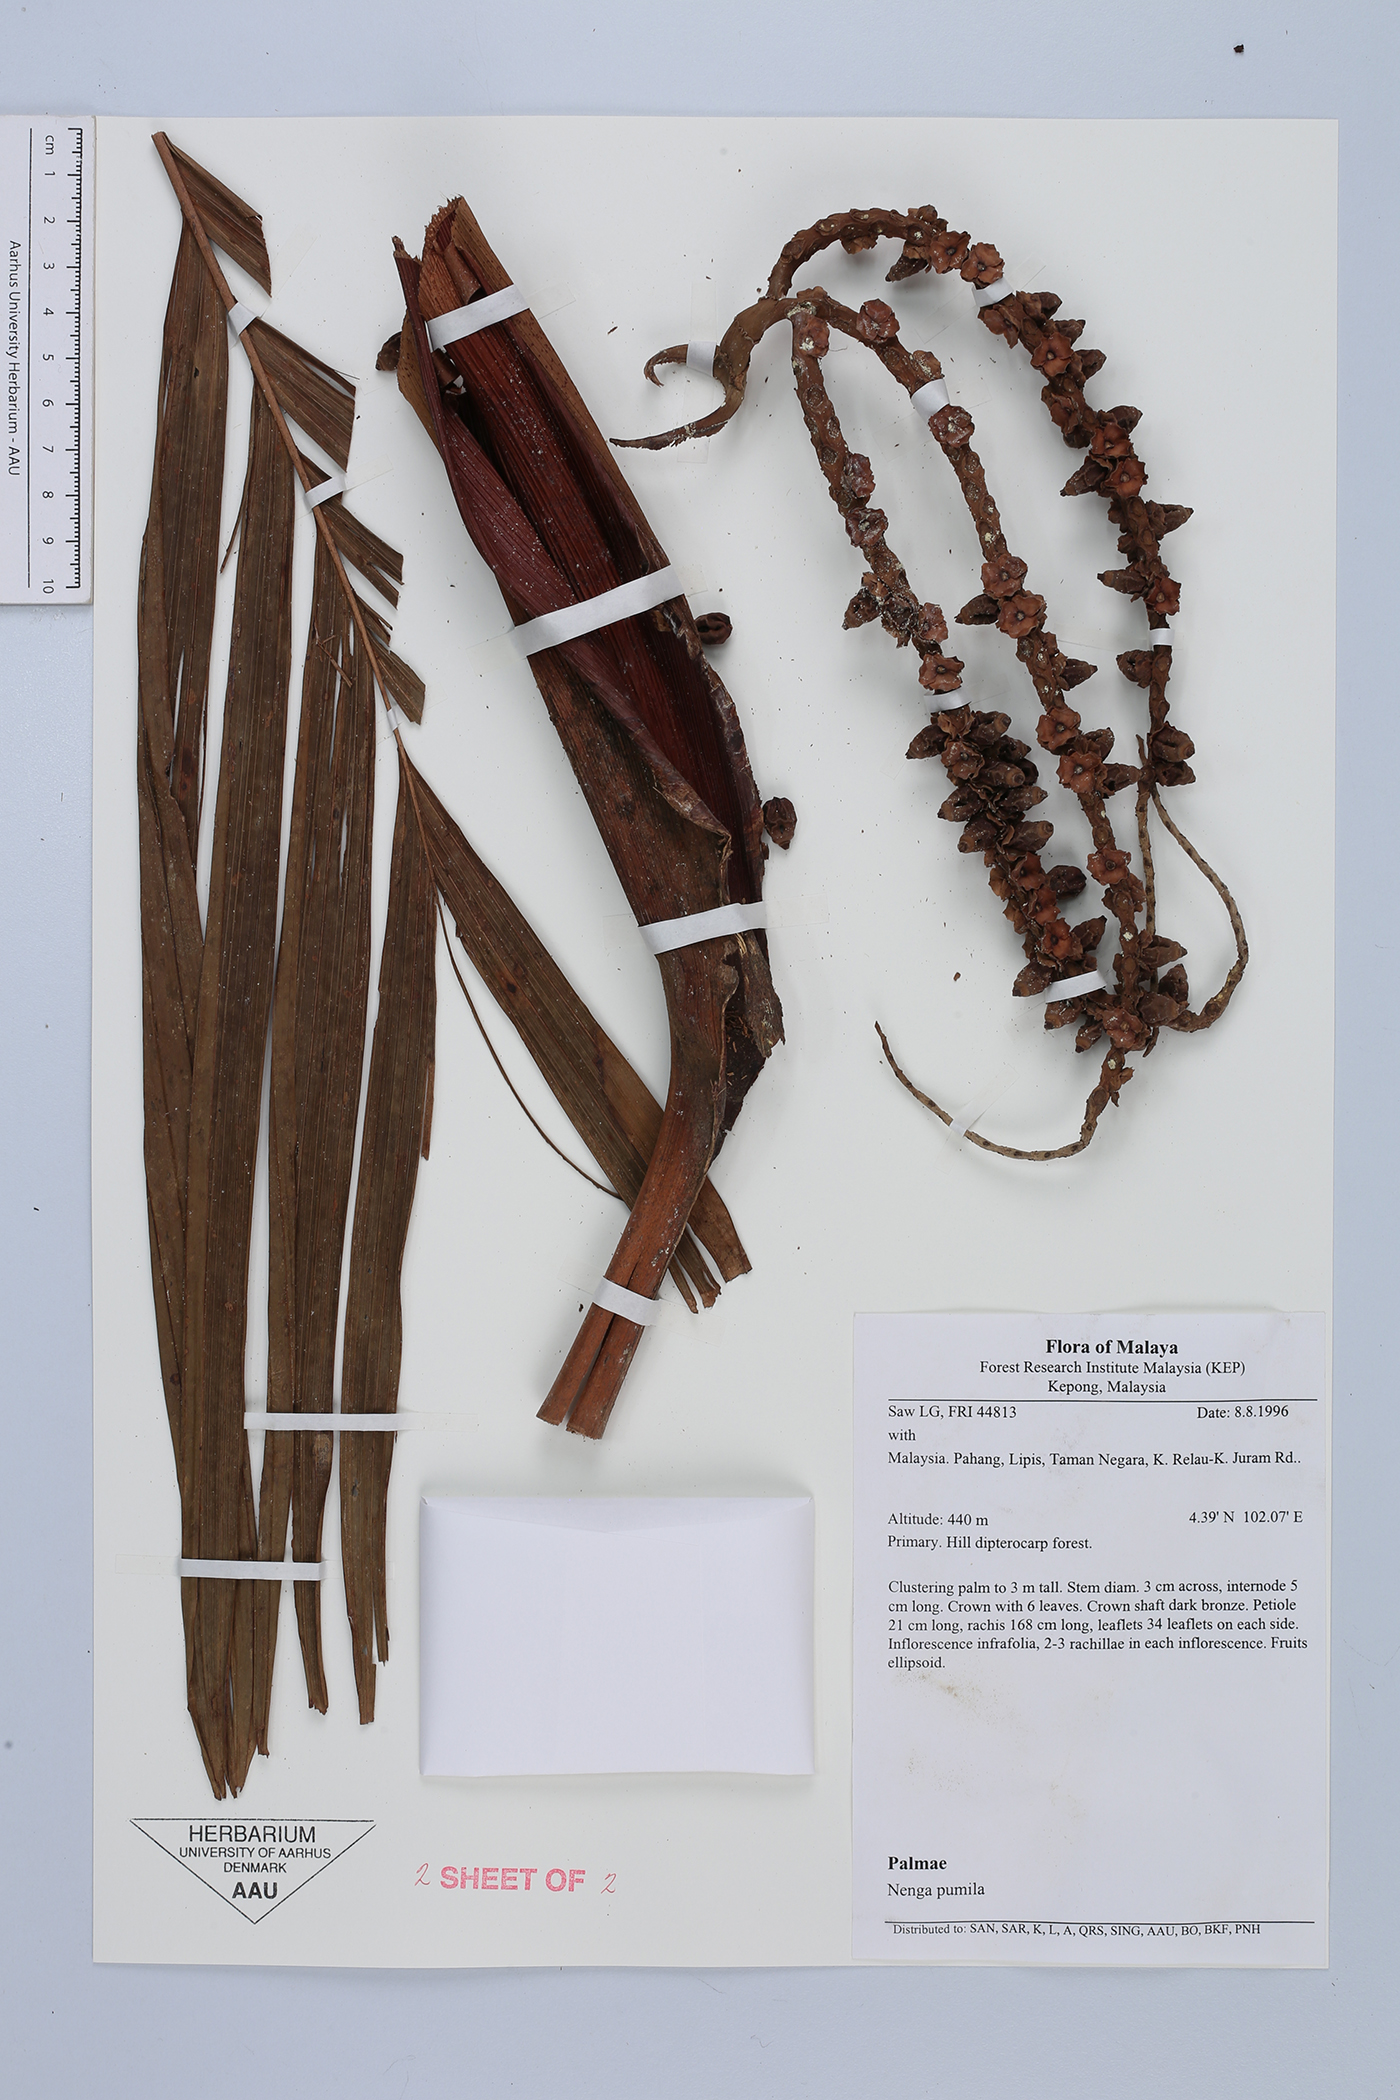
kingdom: Plantae
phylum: Tracheophyta
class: Liliopsida
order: Arecales
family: Arecaceae
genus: Nenga
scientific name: Nenga pumila
